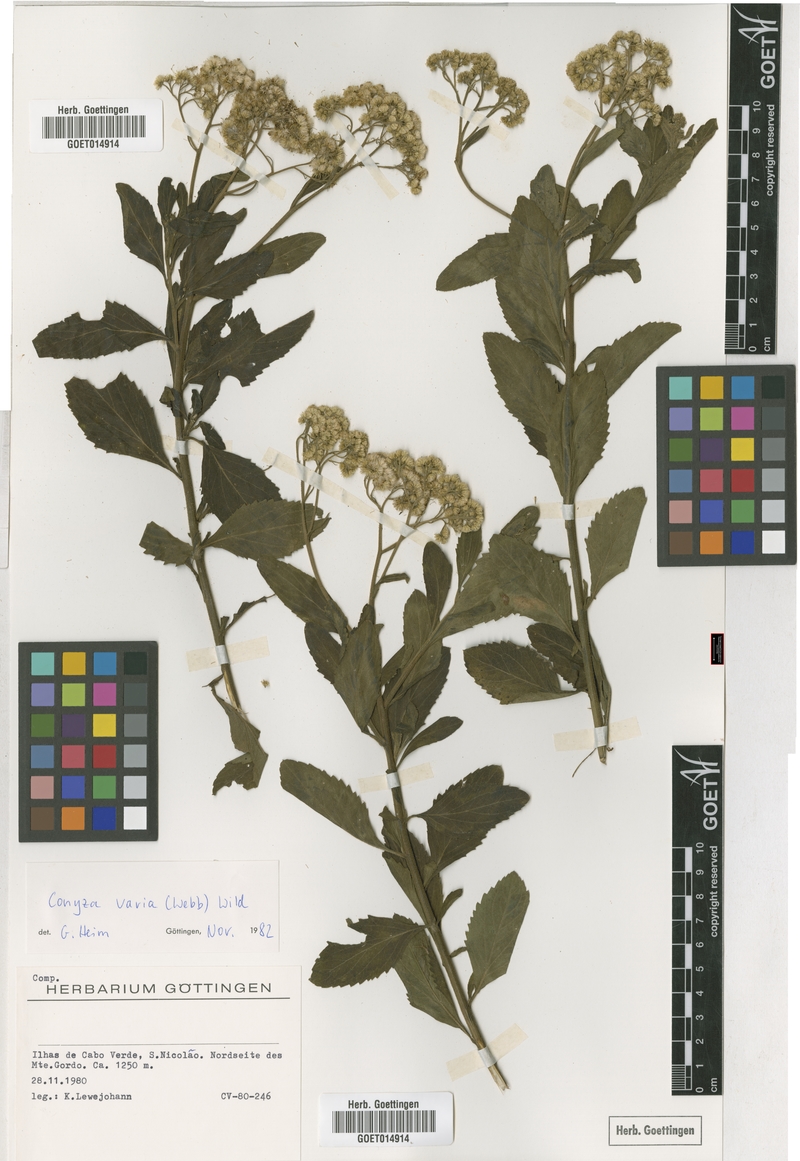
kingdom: Plantae
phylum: Tracheophyta
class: Magnoliopsida
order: Asterales
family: Asteraceae
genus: Nidorella
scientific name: Nidorella varia
